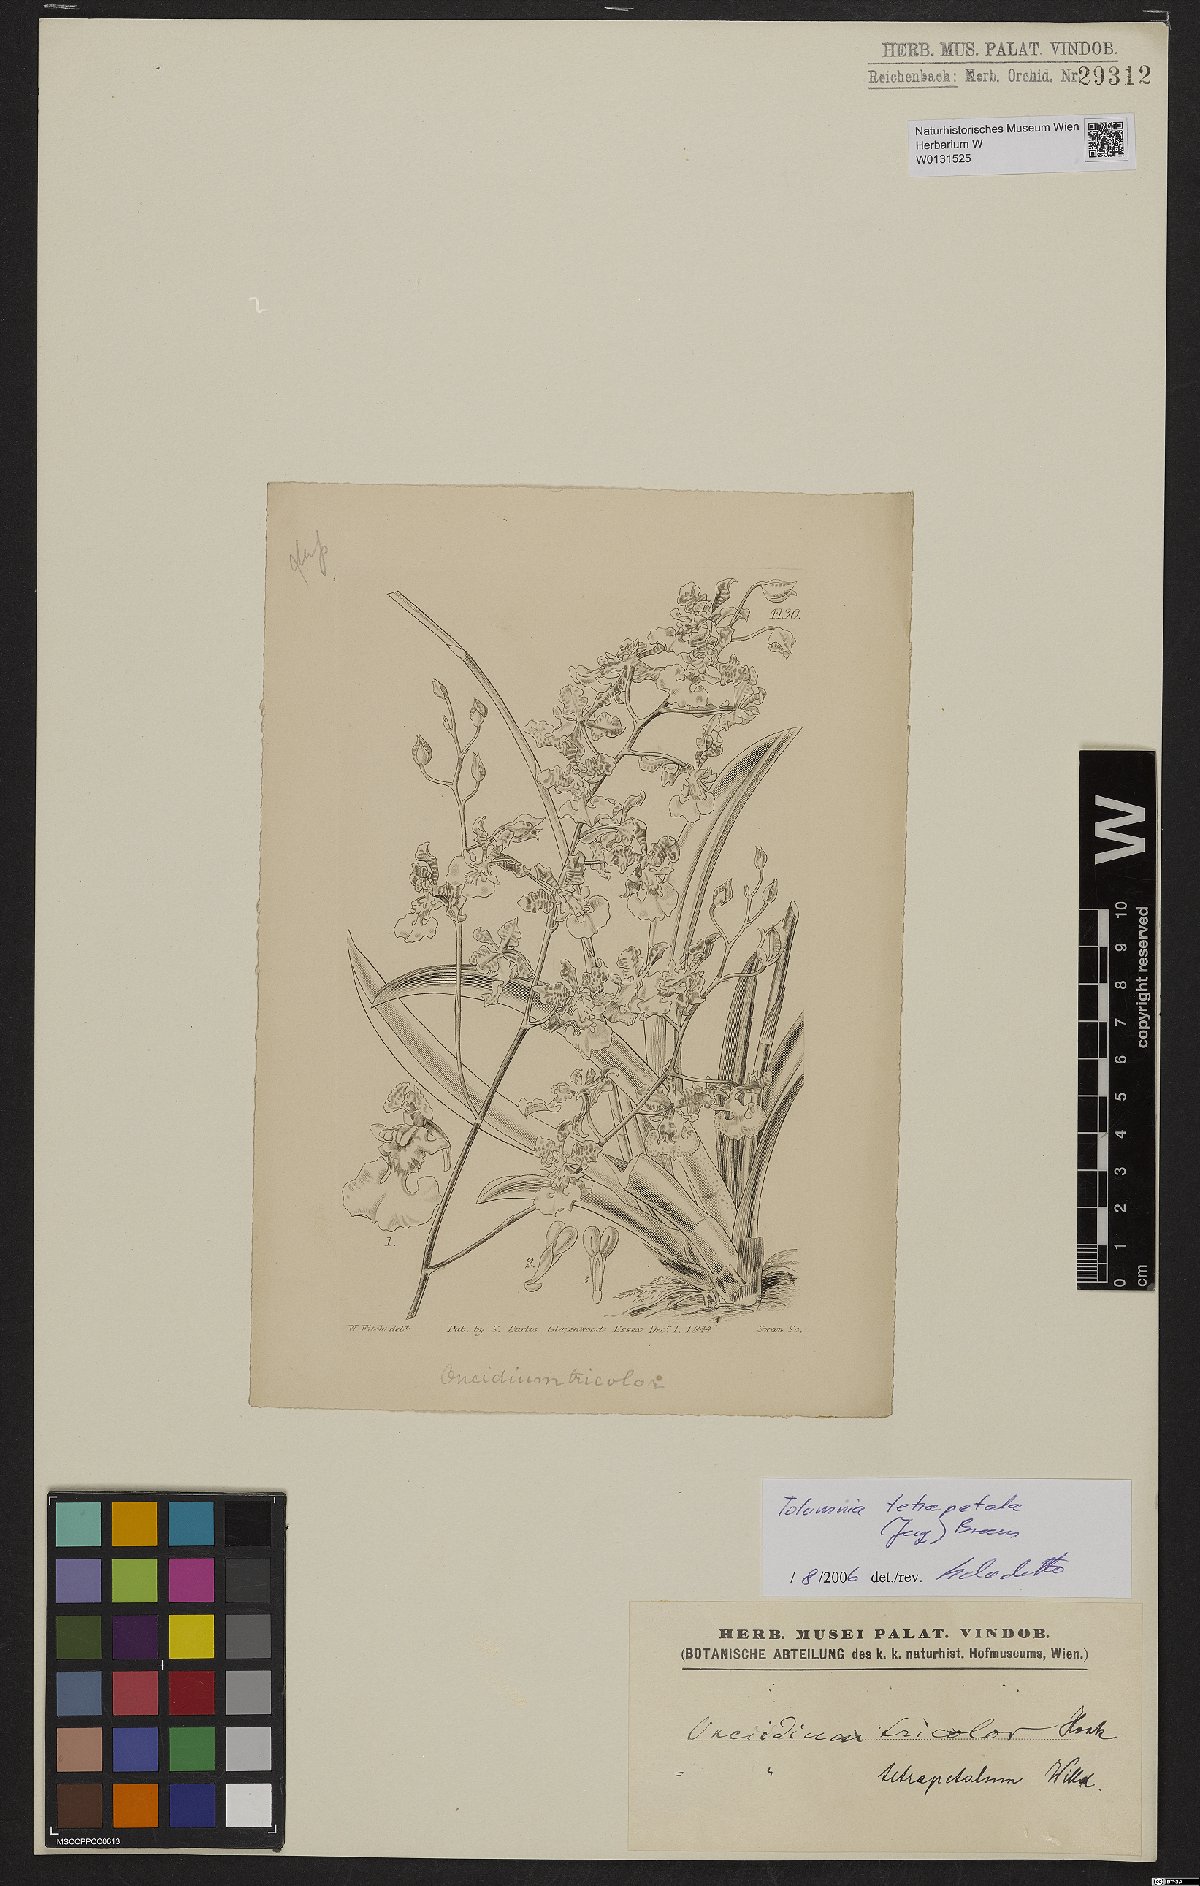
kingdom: Plantae
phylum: Tracheophyta
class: Liliopsida
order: Asparagales
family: Orchidaceae
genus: Tolumnia
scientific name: Tolumnia guttata
